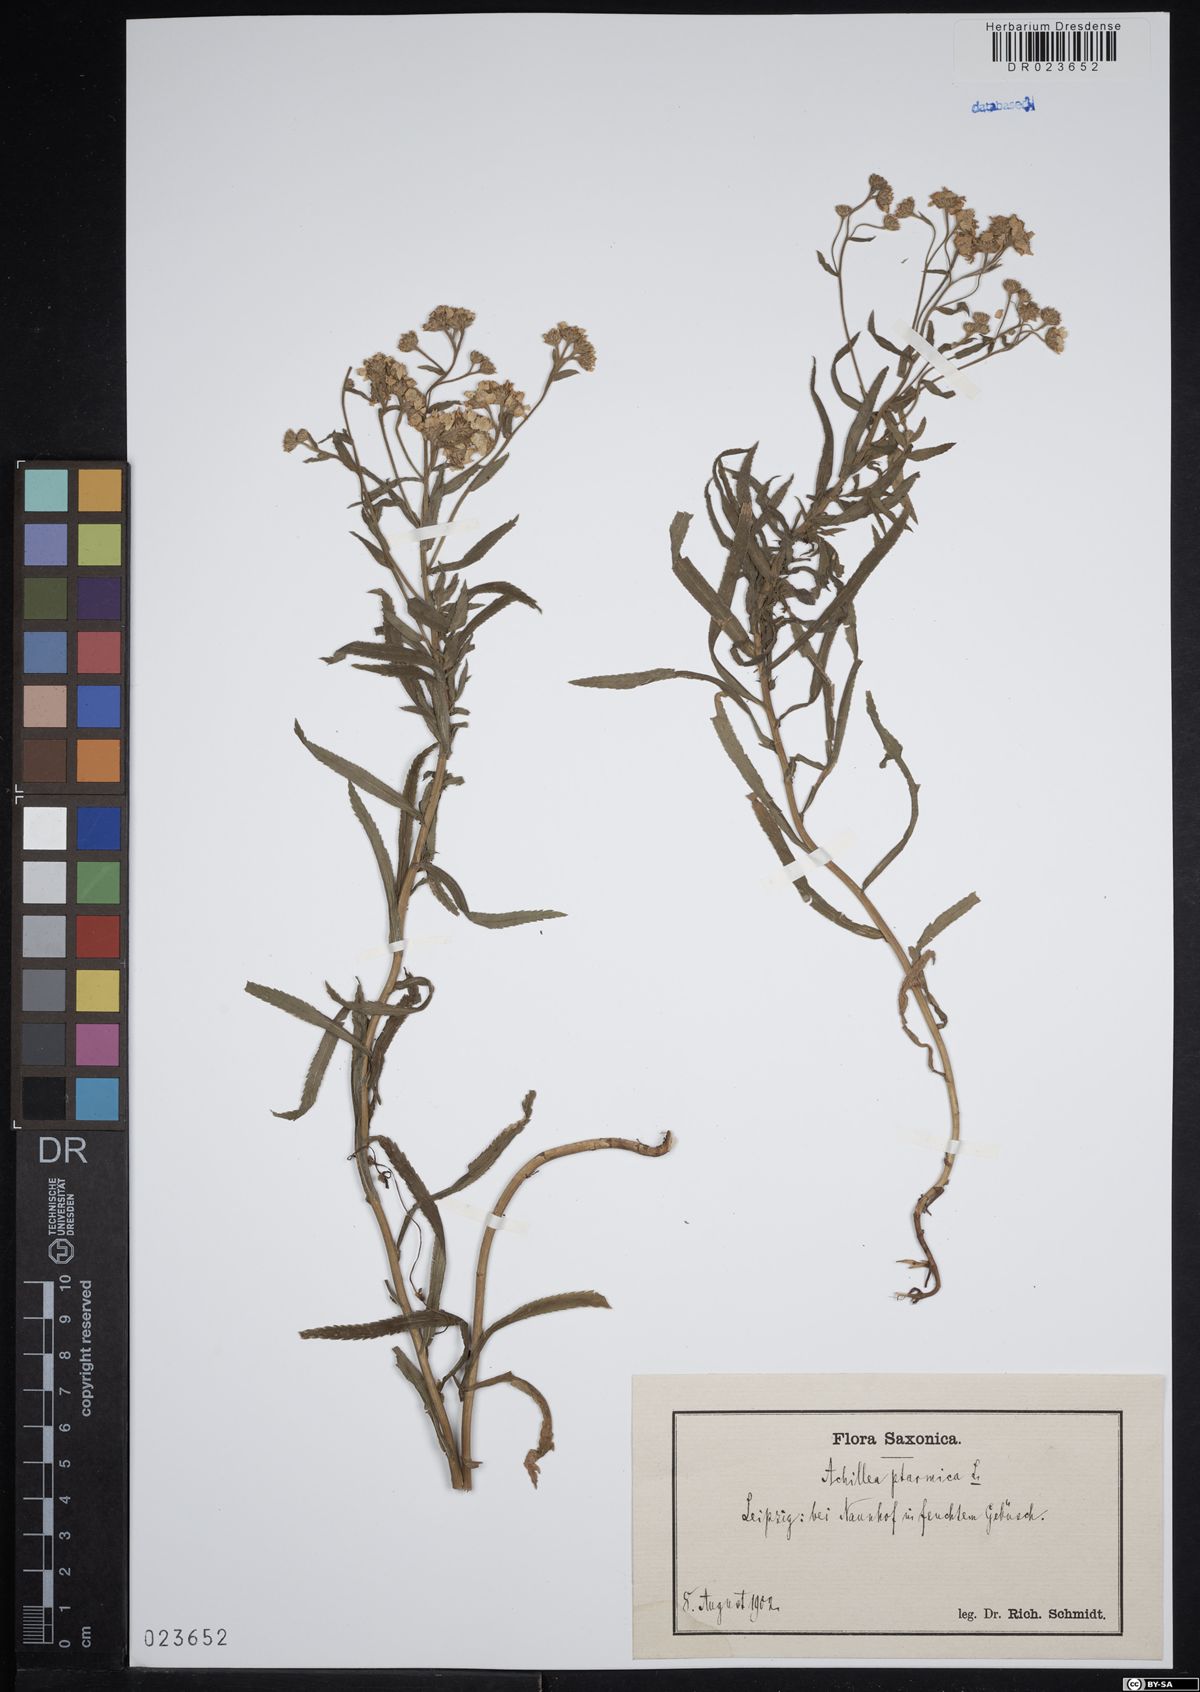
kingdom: Plantae
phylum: Tracheophyta
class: Magnoliopsida
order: Asterales
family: Asteraceae
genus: Achillea
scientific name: Achillea ptarmica
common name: Sneezeweed
